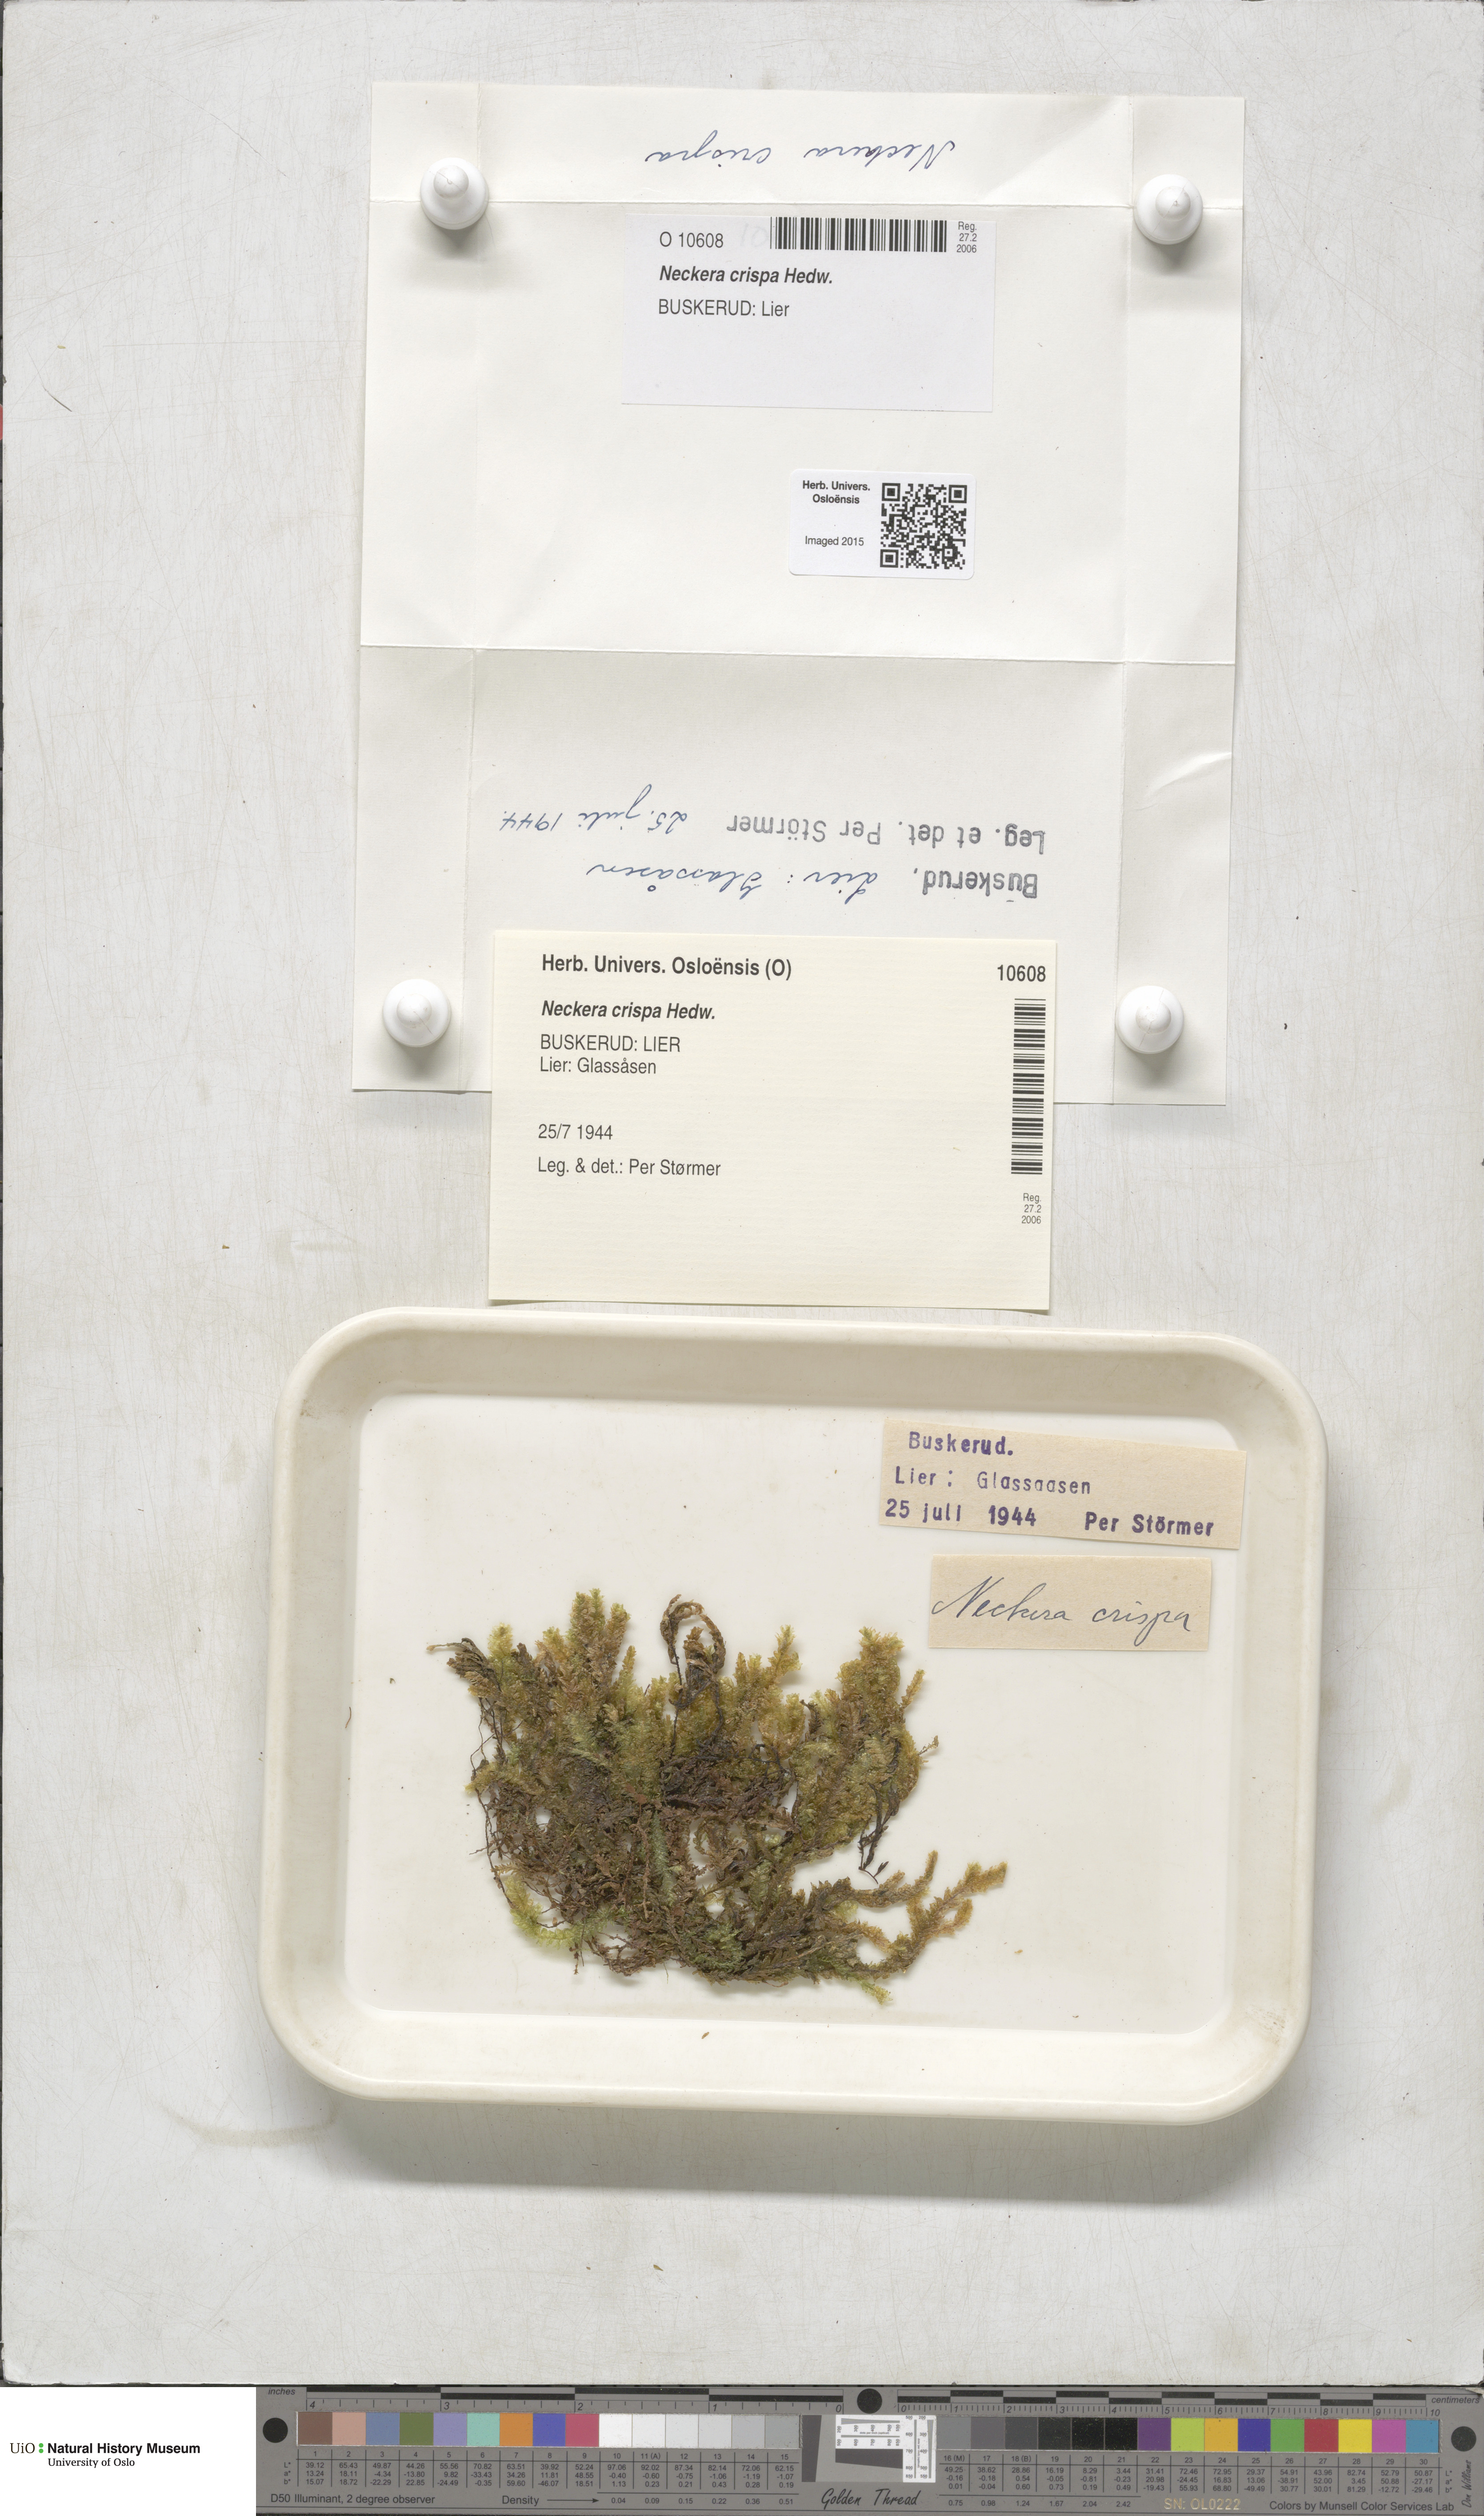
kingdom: Plantae
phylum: Bryophyta
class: Bryopsida
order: Hypnales
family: Neckeraceae
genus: Exsertotheca
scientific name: Exsertotheca crispa
